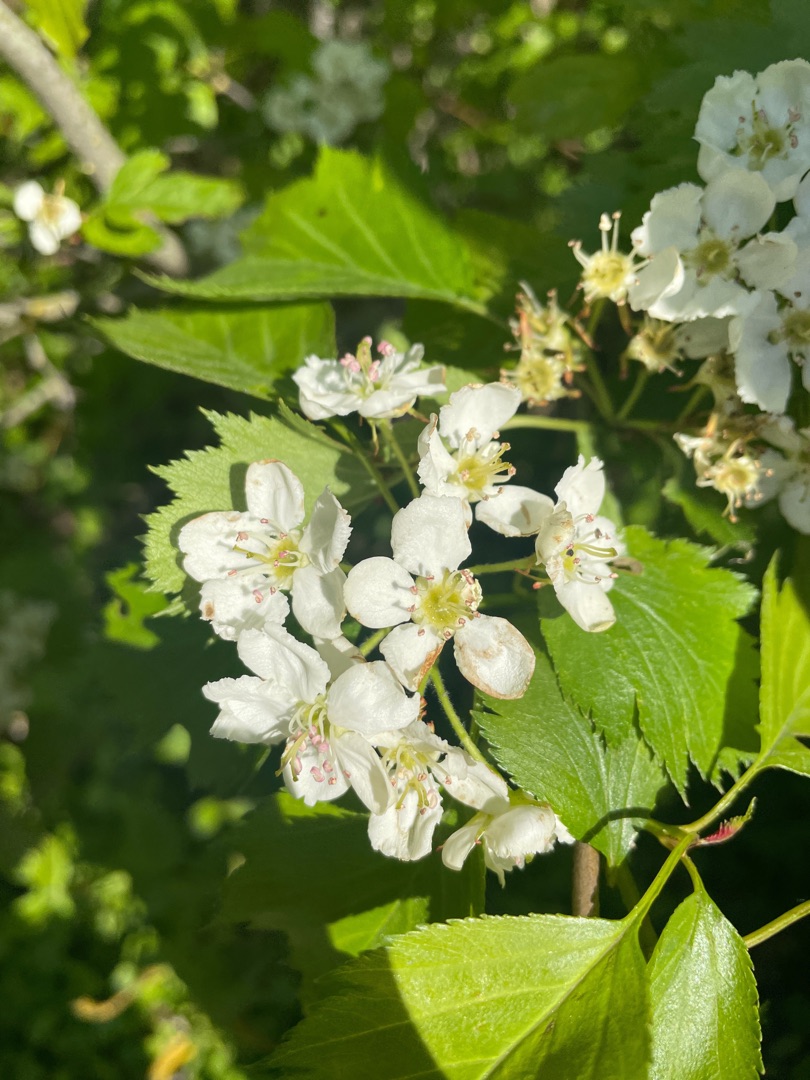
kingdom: Plantae
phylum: Tracheophyta
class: Magnoliopsida
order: Rosales
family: Rosaceae
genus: Crataegus
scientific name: Crataegus pinnatifida
